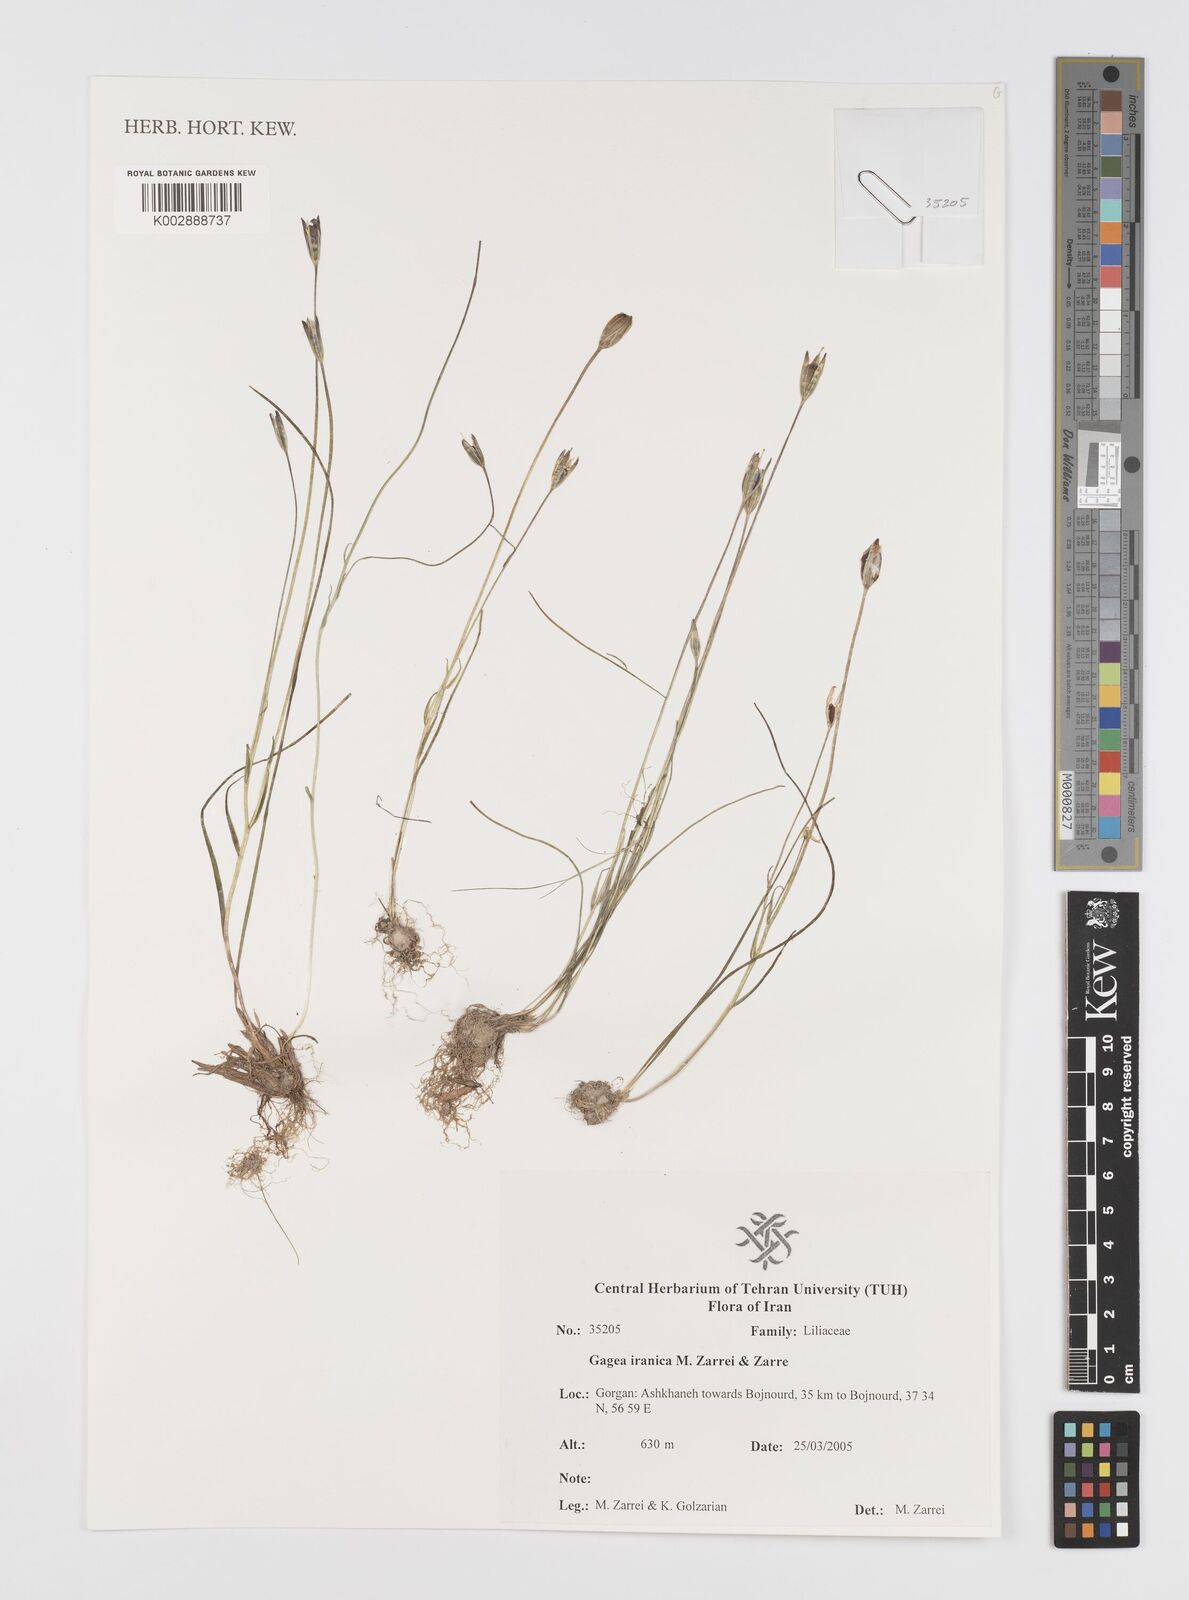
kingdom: Plantae
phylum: Tracheophyta
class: Liliopsida
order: Liliales
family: Liliaceae
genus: Gagea
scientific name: Gagea iranica
